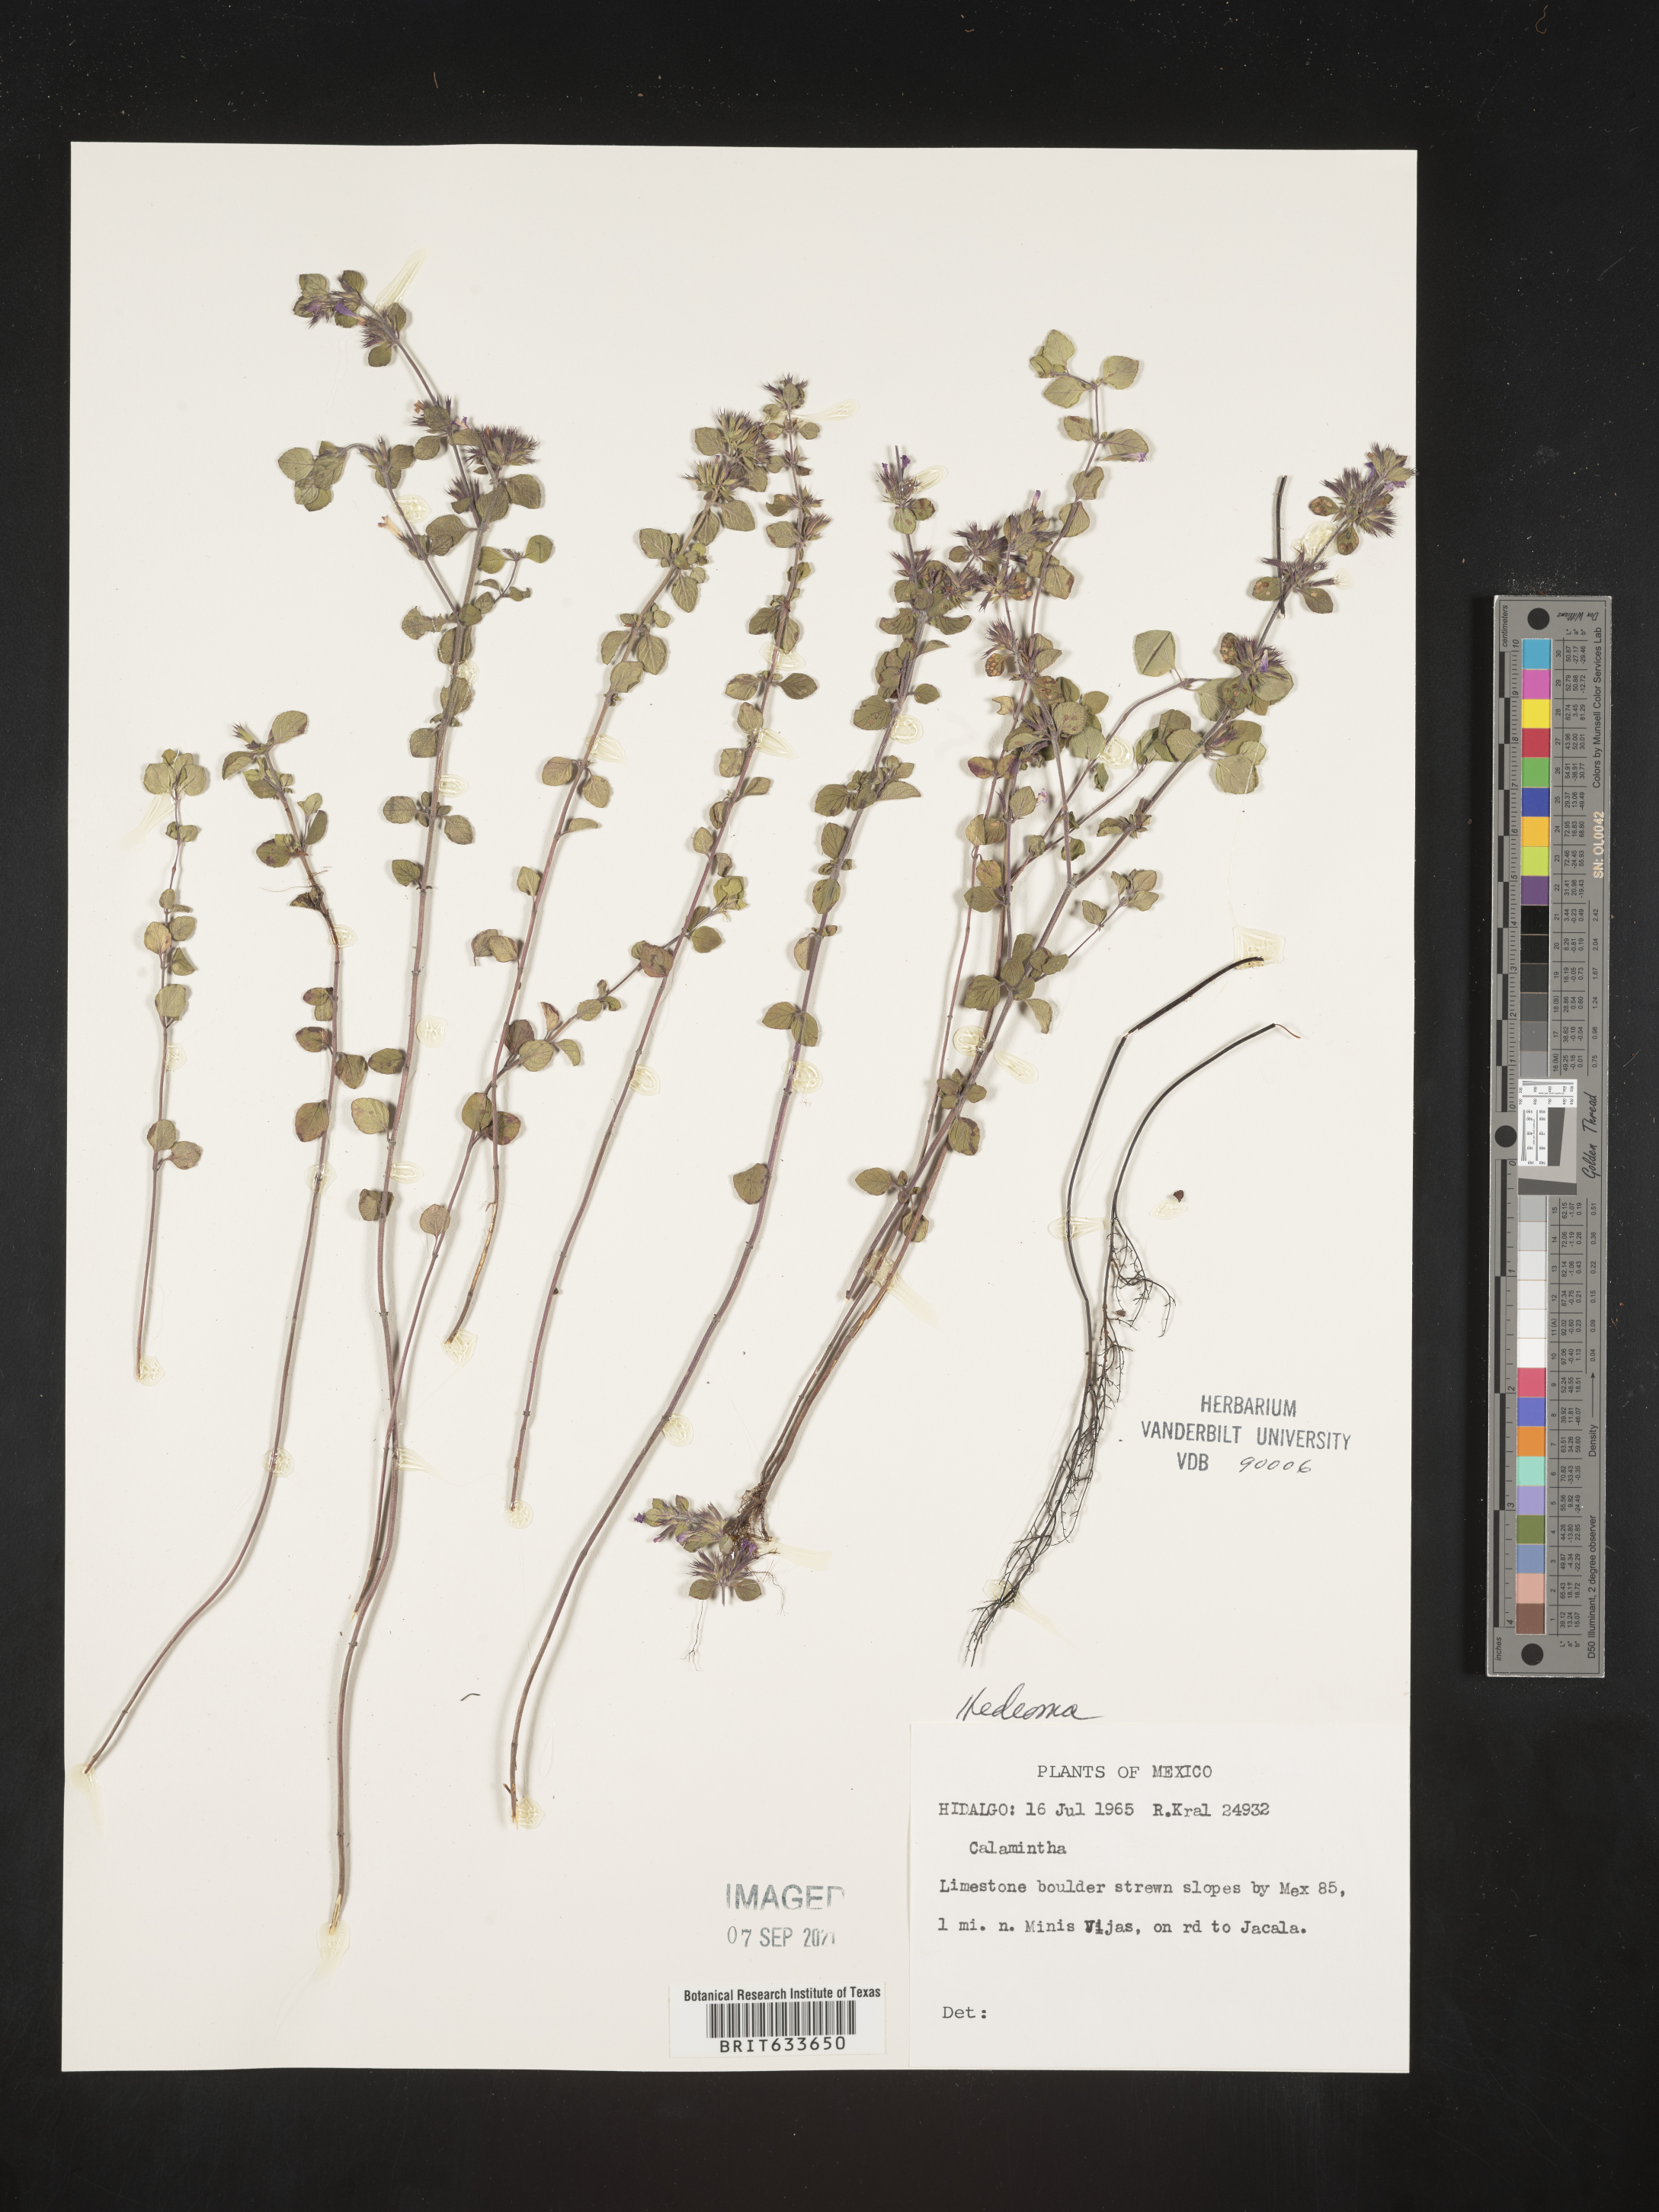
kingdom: Plantae
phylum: Tracheophyta
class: Magnoliopsida
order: Lamiales
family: Lamiaceae
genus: Hedeoma
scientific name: Hedeoma
